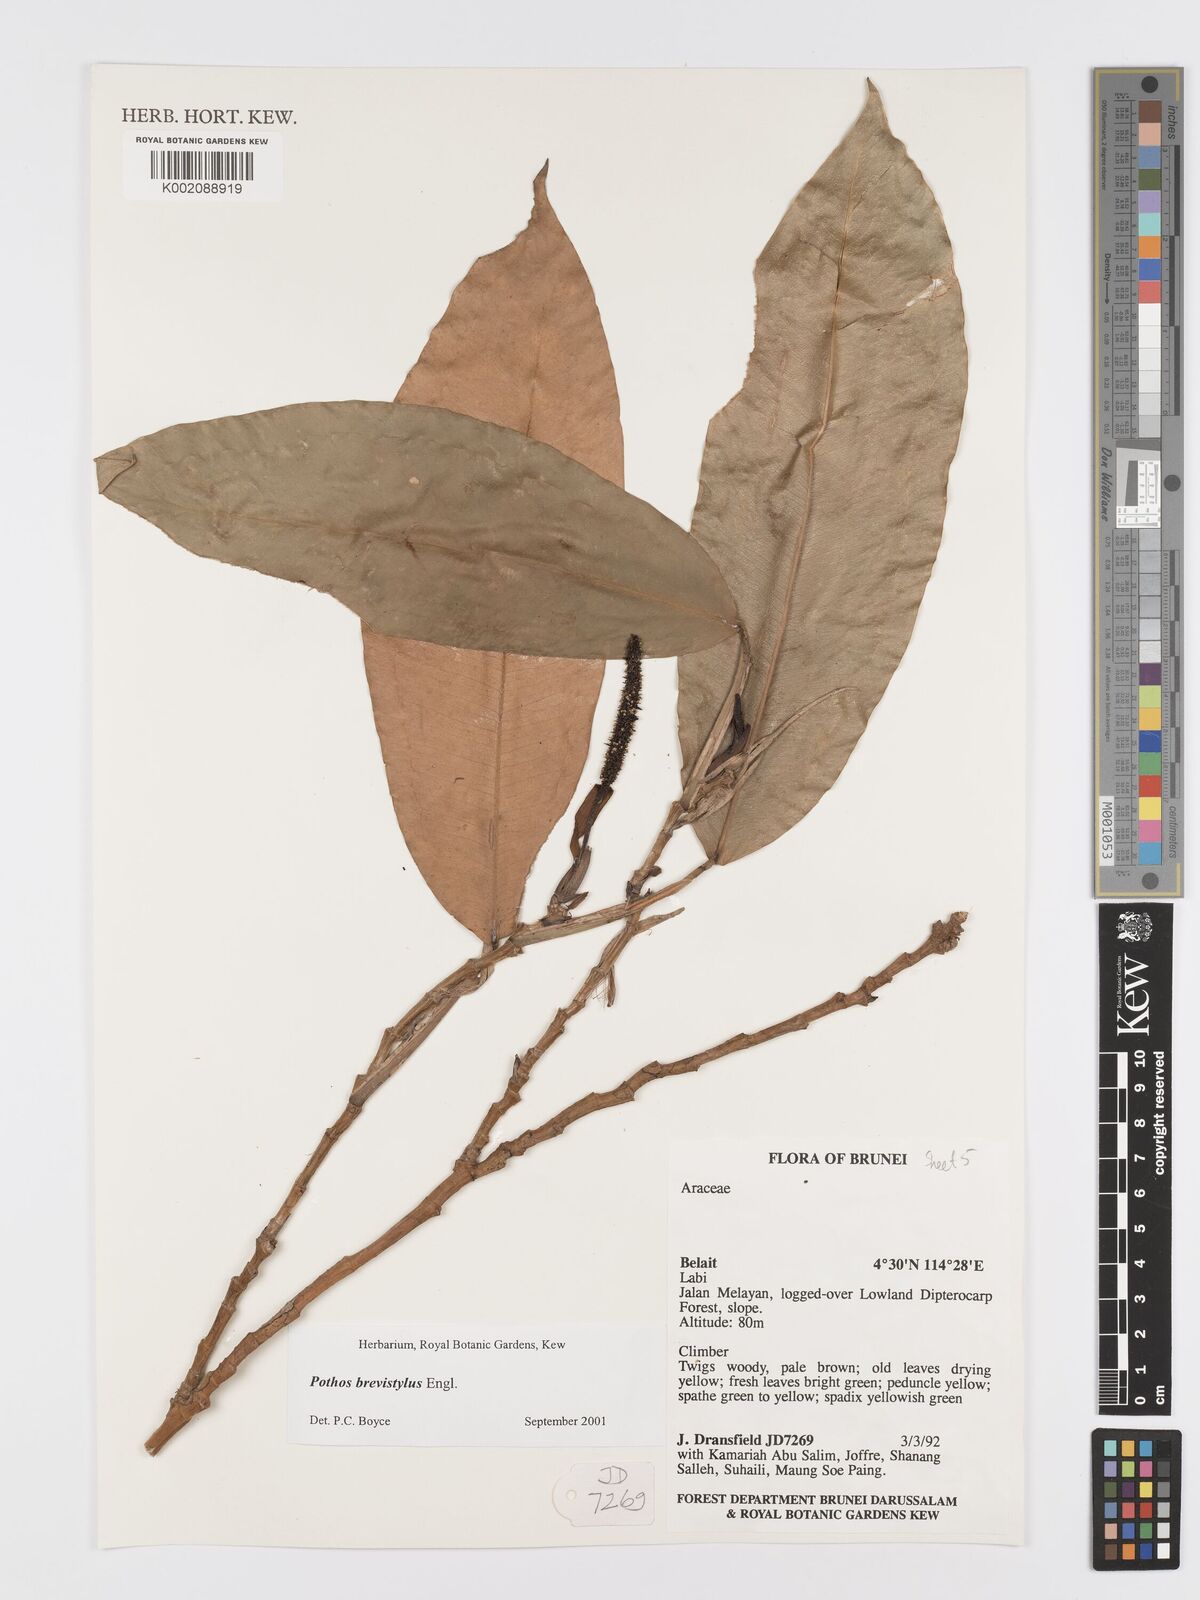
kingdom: Plantae
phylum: Tracheophyta
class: Liliopsida
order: Alismatales
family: Araceae
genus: Pothos
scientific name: Pothos brevistylus
